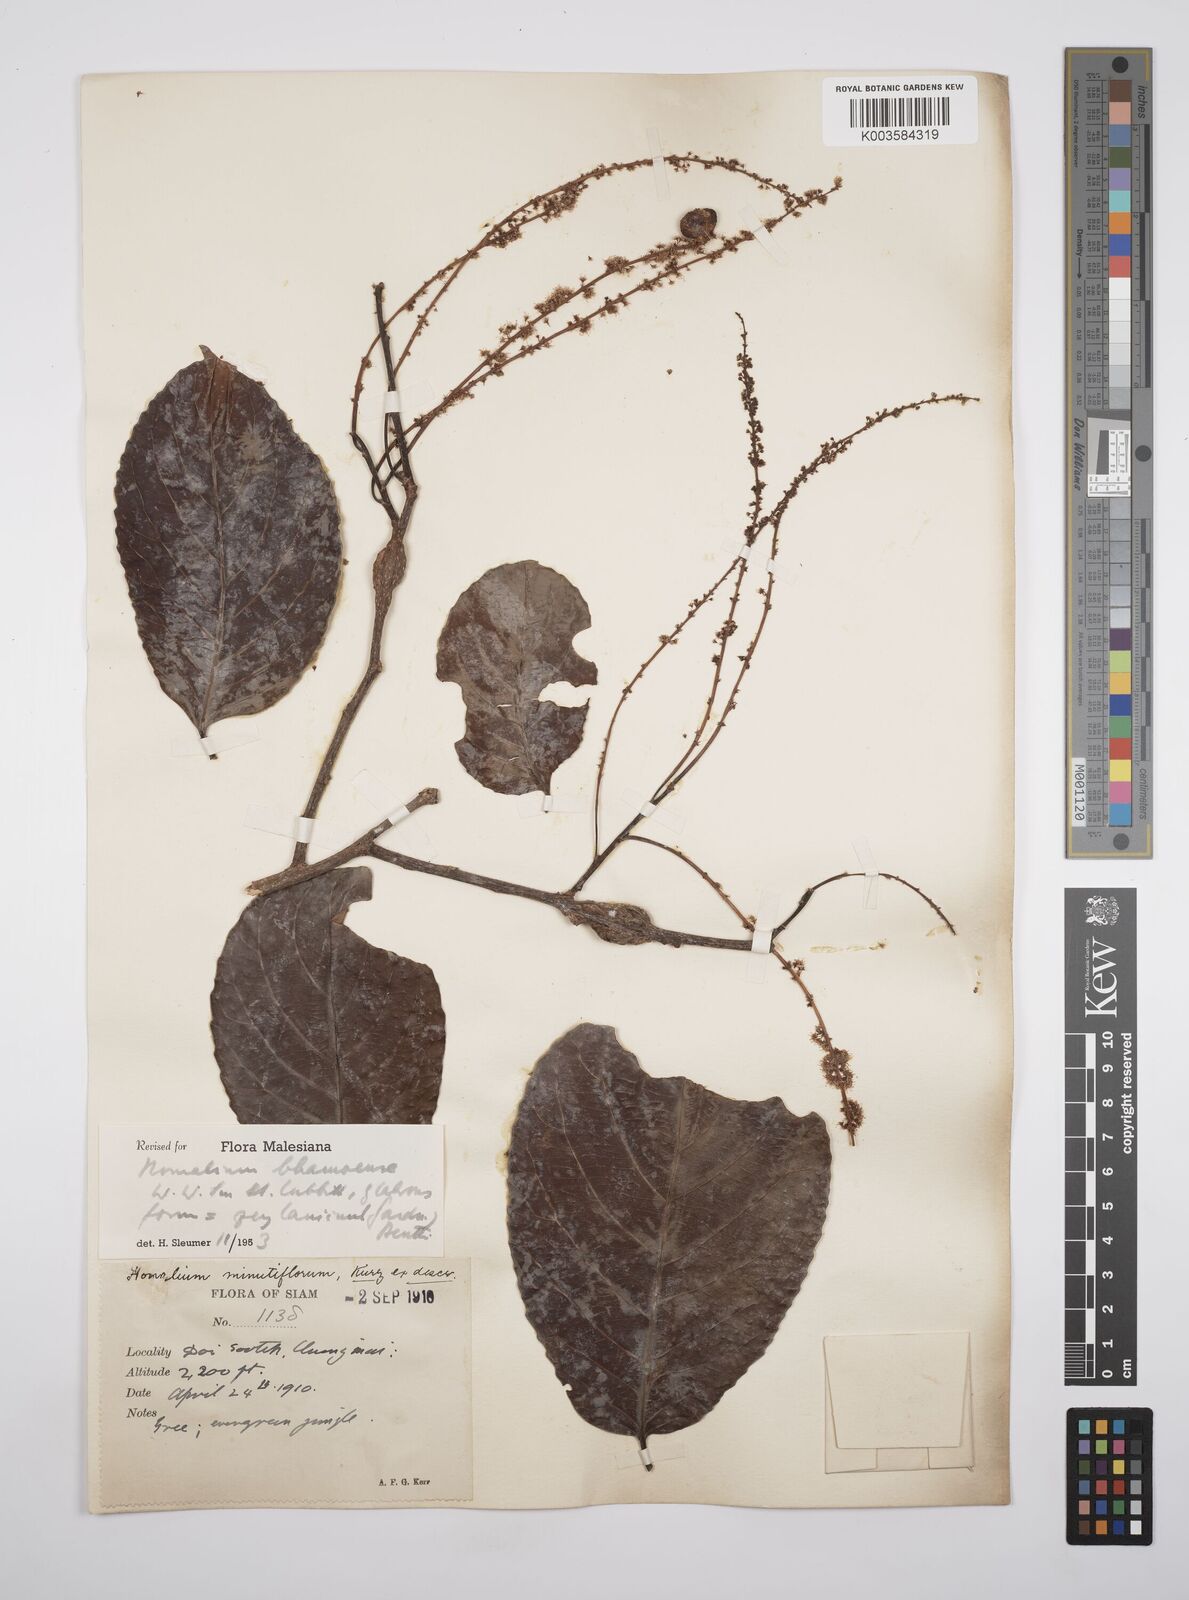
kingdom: Plantae
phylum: Tracheophyta
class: Magnoliopsida
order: Malpighiales
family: Salicaceae
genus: Homalium
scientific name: Homalium ceylanicum
